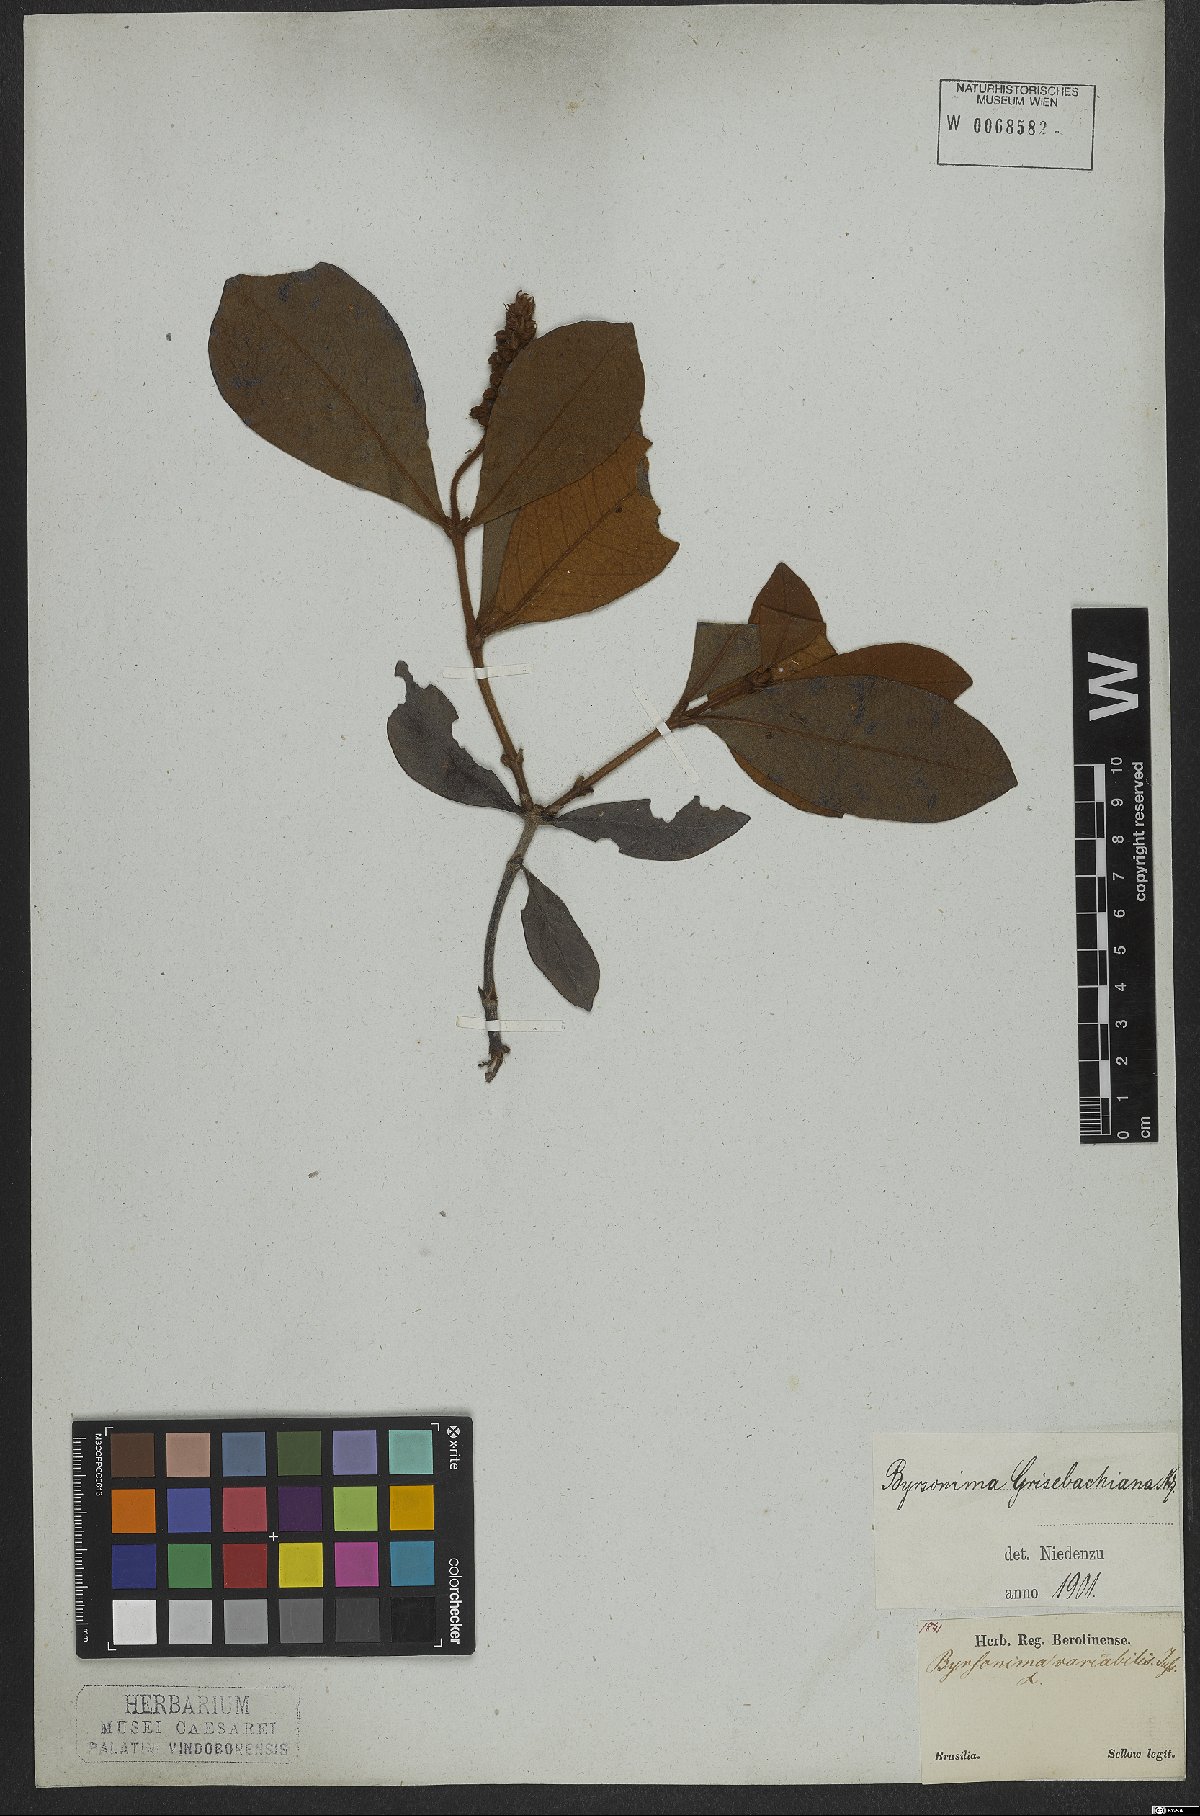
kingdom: Plantae
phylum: Tracheophyta
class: Magnoliopsida
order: Malpighiales
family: Malpighiaceae
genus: Byrsonima
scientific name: Byrsonima pachyphylla
